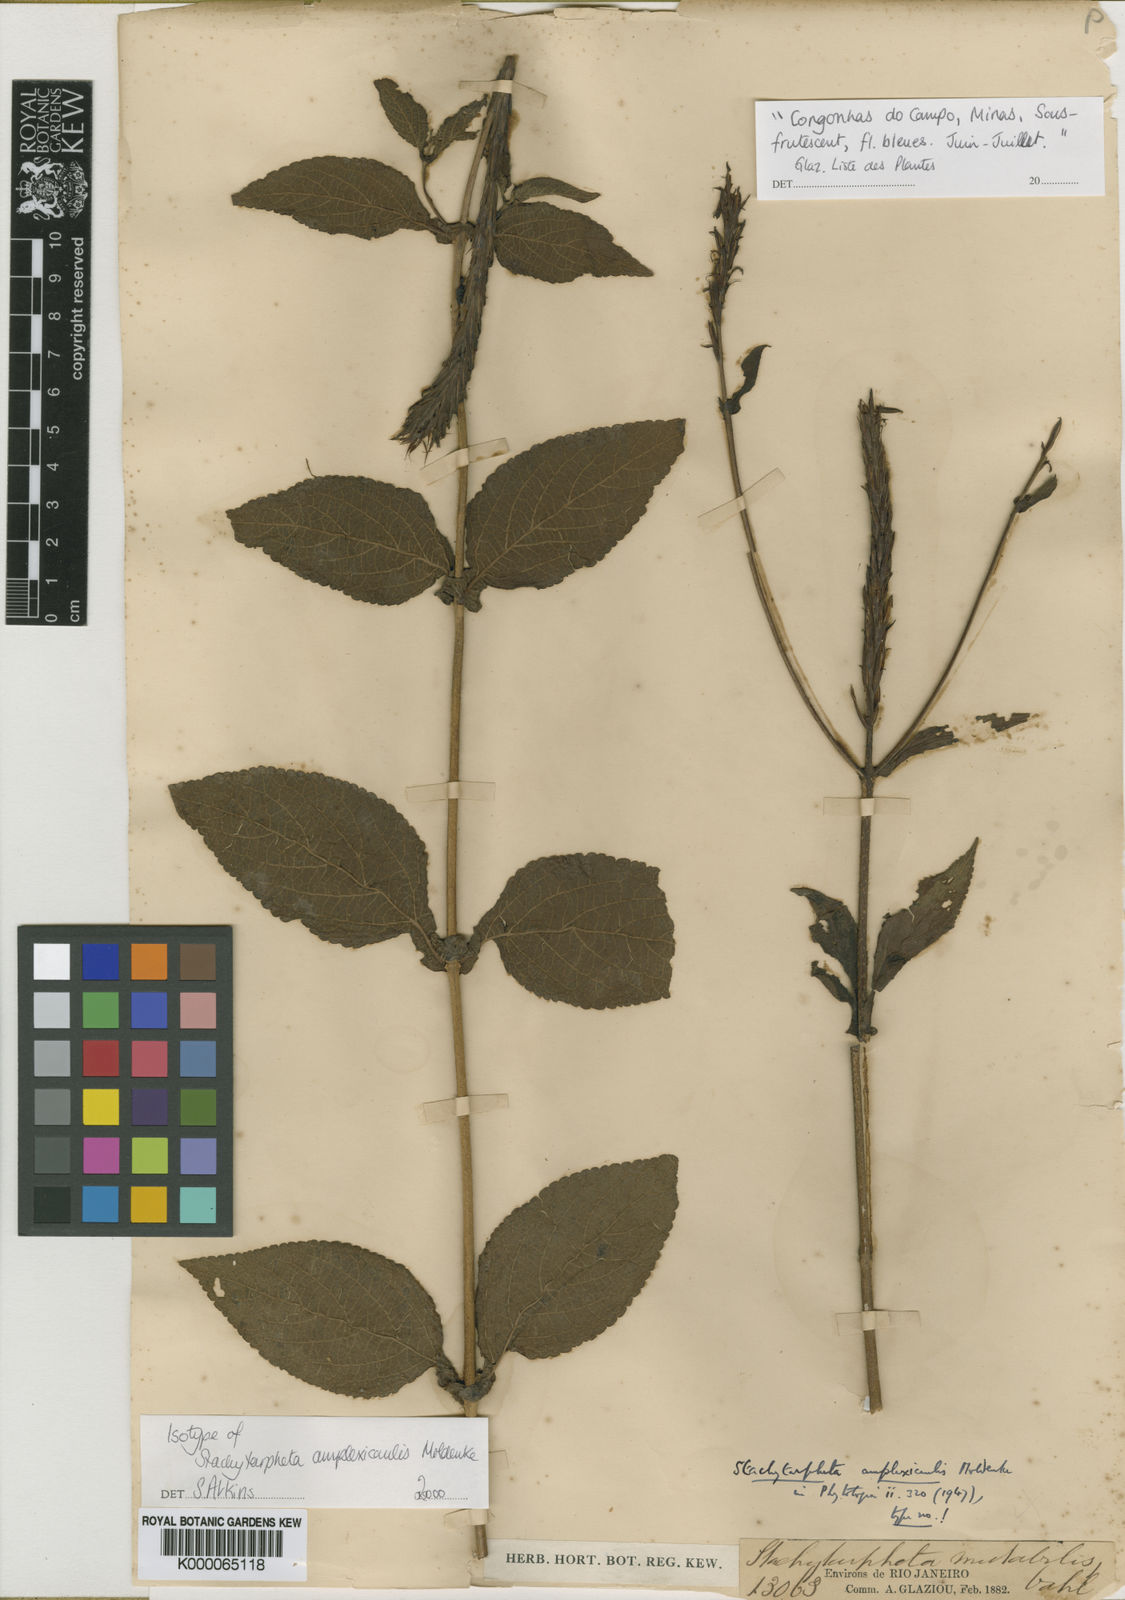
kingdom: Plantae
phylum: Tracheophyta
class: Magnoliopsida
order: Lamiales
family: Verbenaceae
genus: Stachytarpheta
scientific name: Stachytarpheta amplexicaulis
